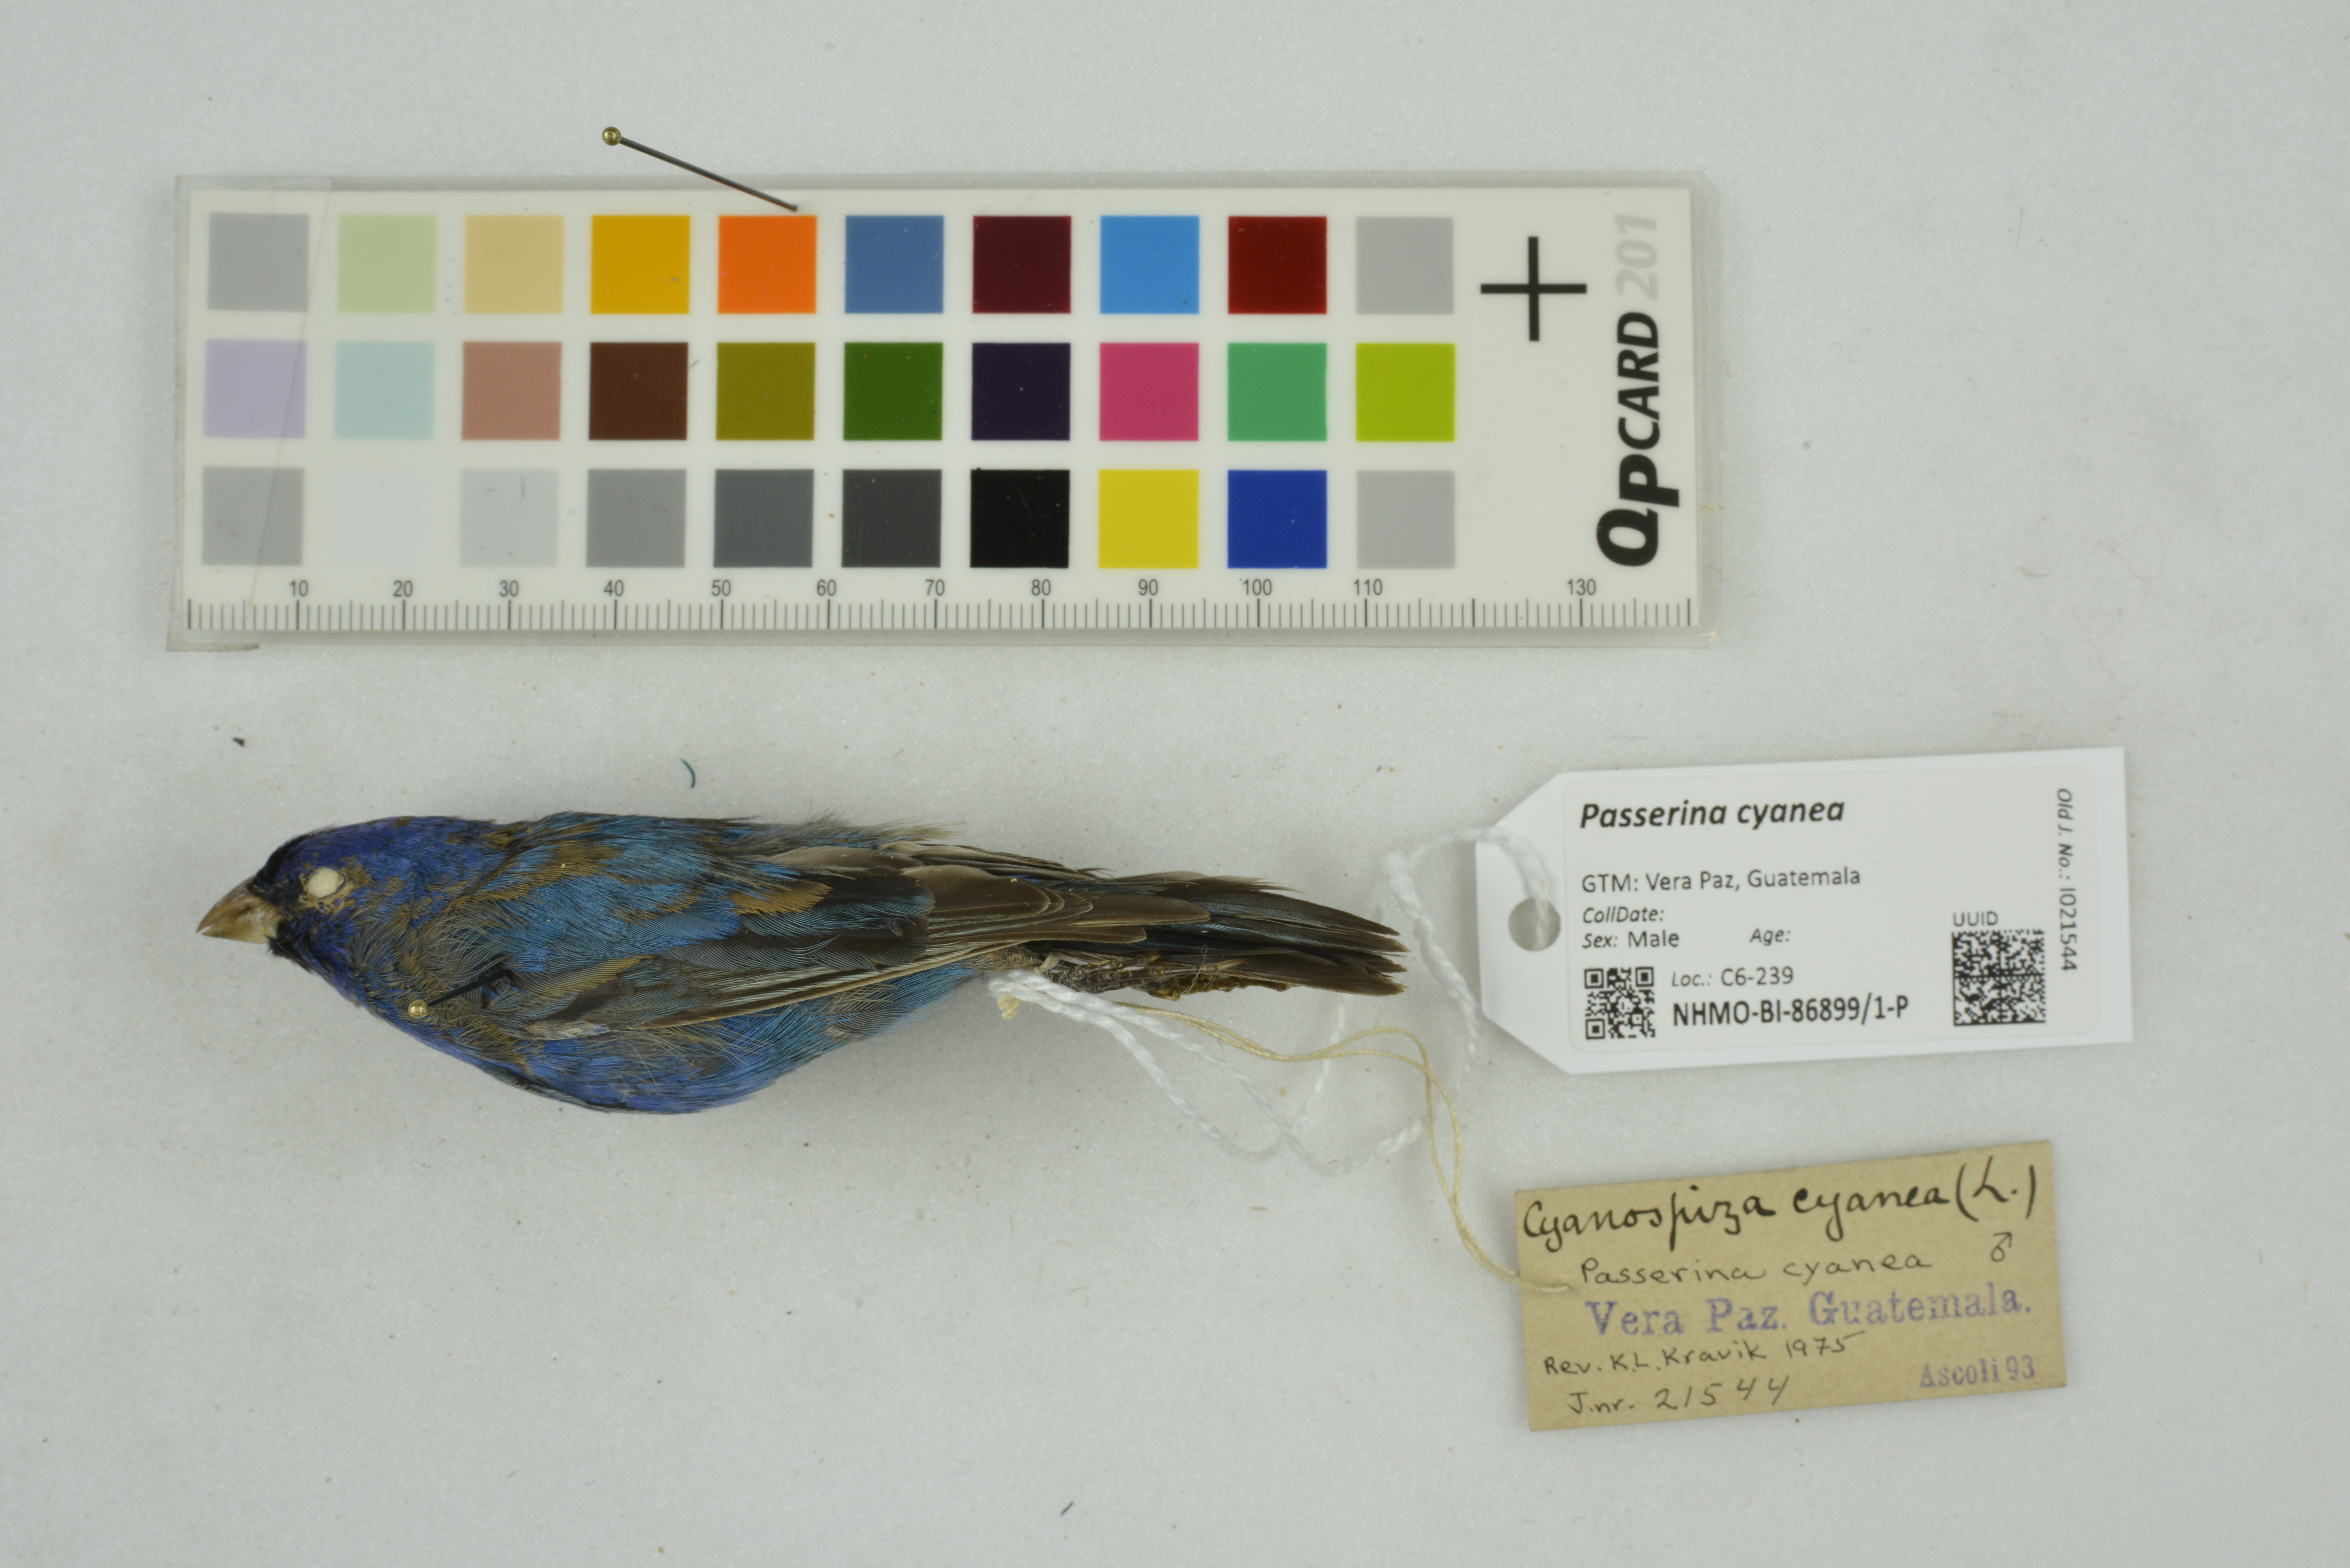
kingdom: Animalia
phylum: Chordata
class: Aves
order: Passeriformes
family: Cardinalidae
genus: Passerina
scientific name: Passerina cyanea
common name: Indigo bunting
